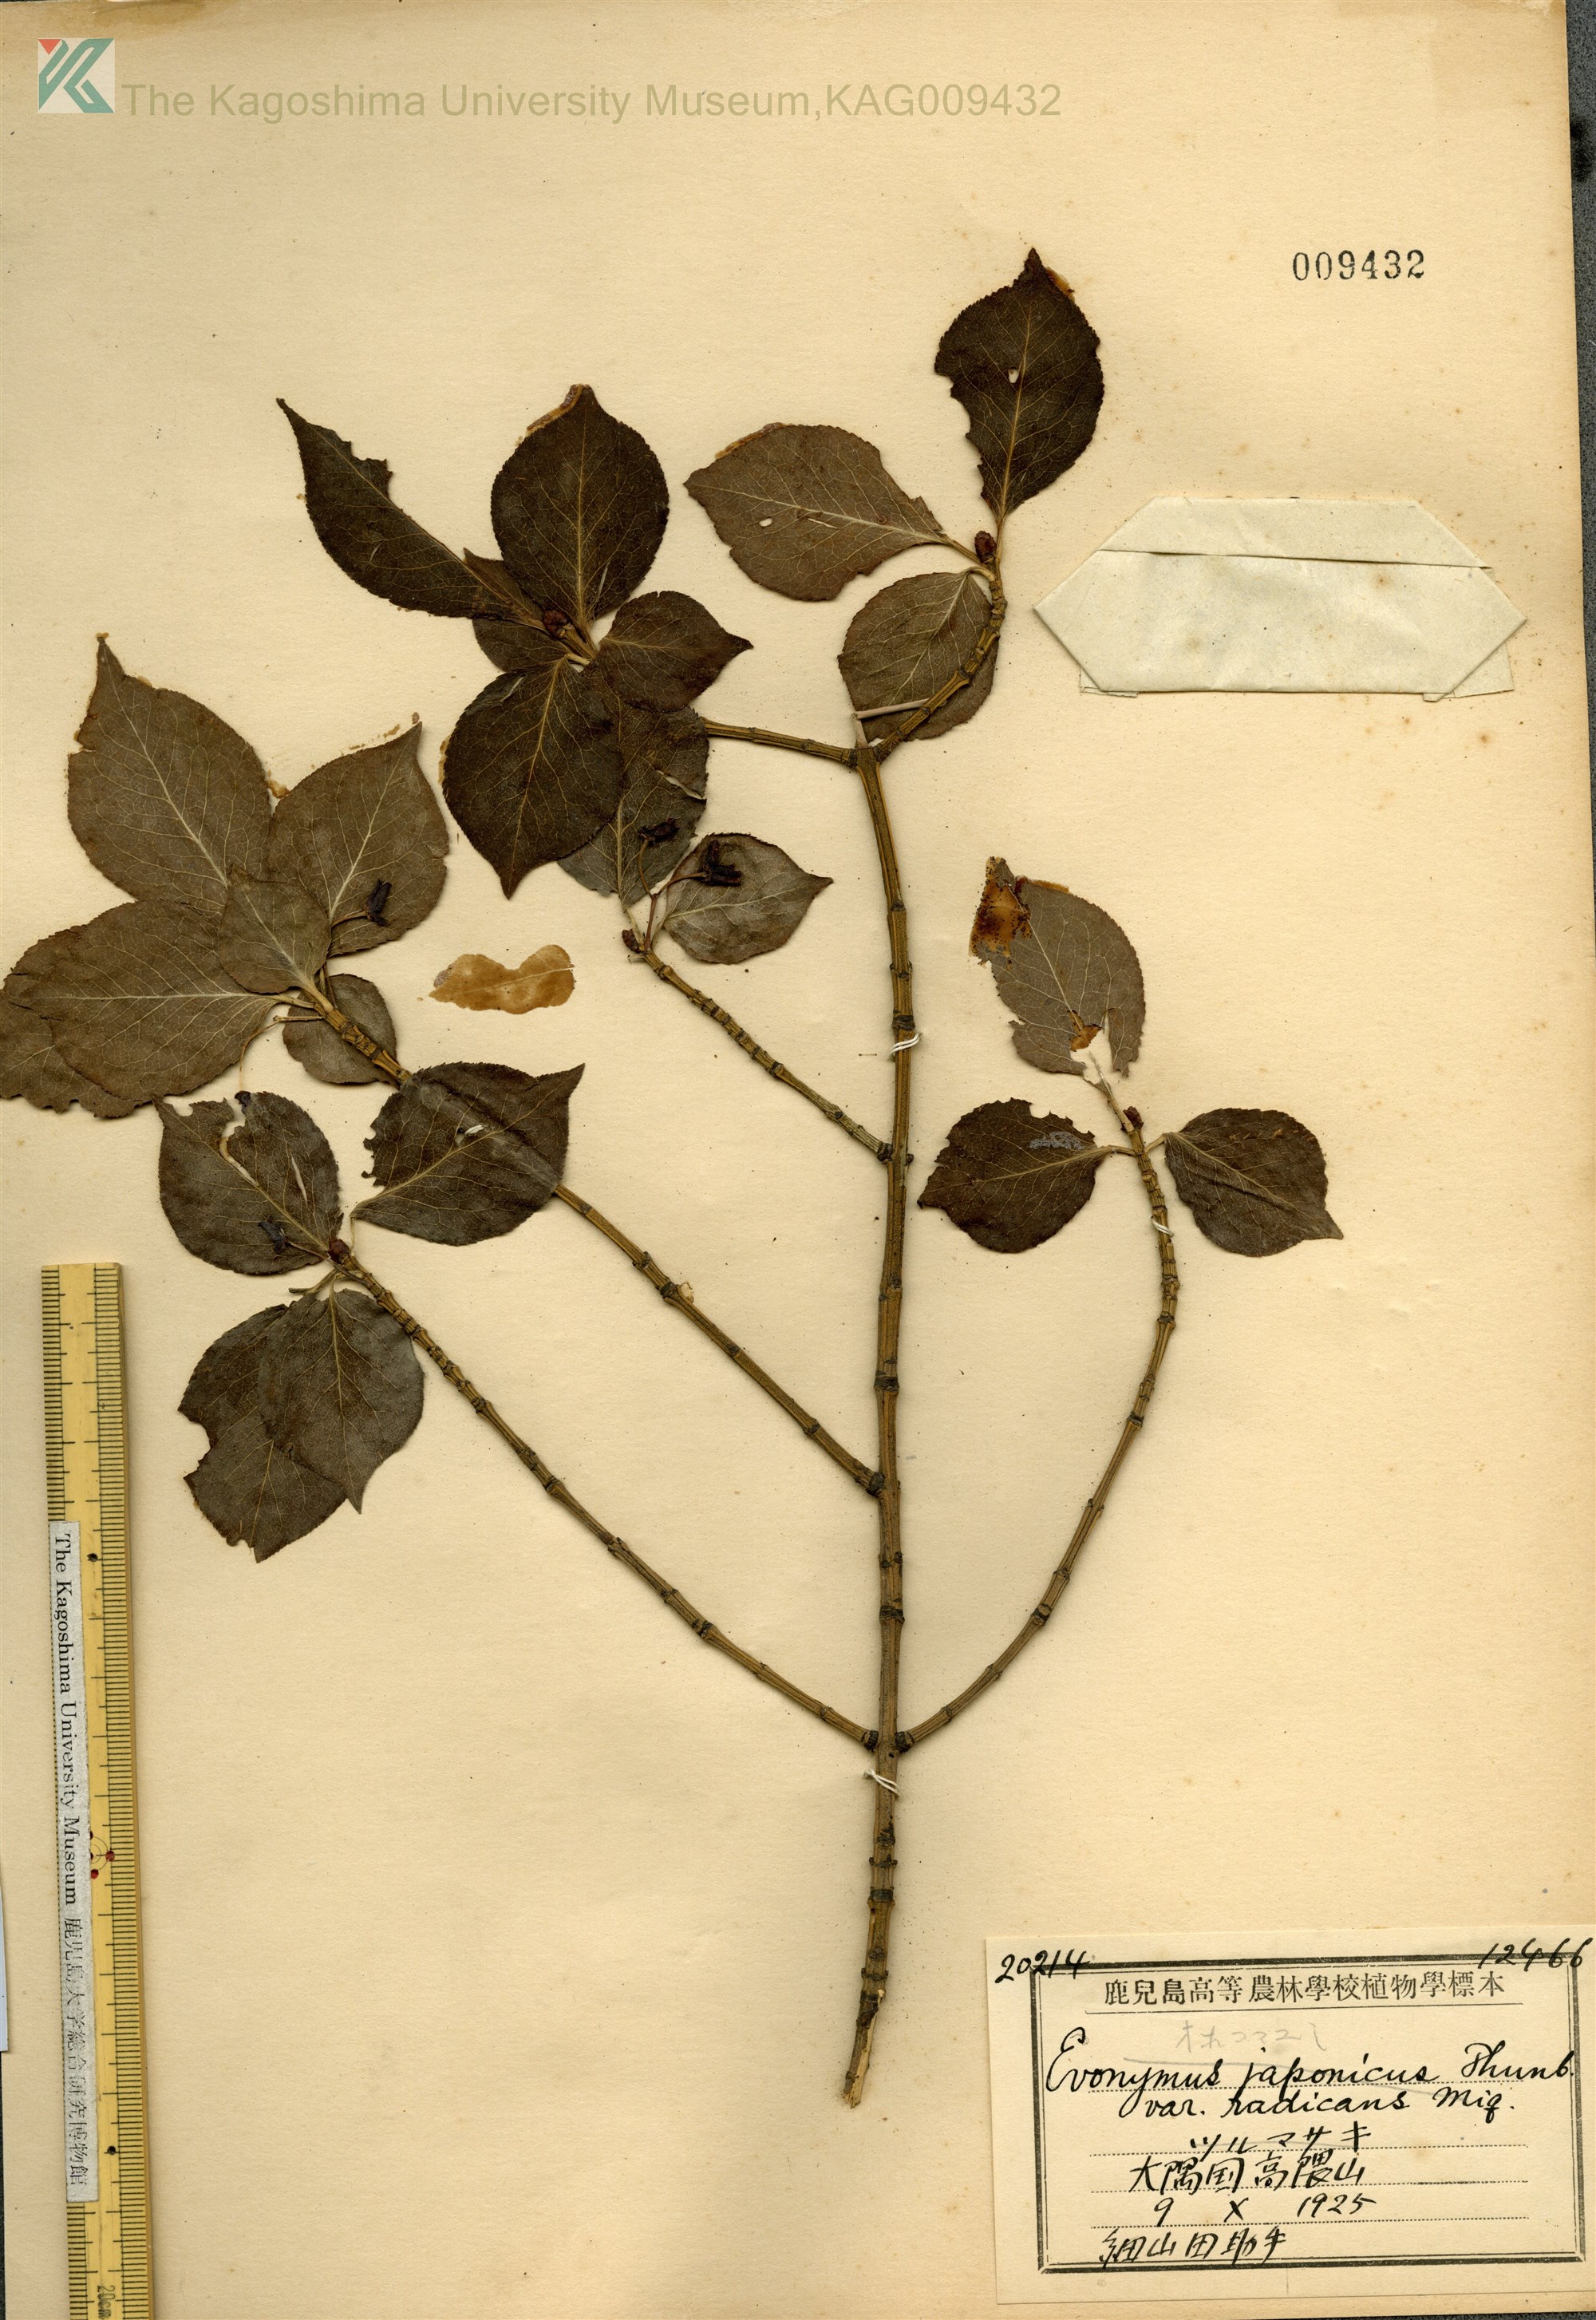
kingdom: Plantae
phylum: Tracheophyta
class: Magnoliopsida
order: Celastrales
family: Celastraceae
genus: Euonymus
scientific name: Euonymus alatus
